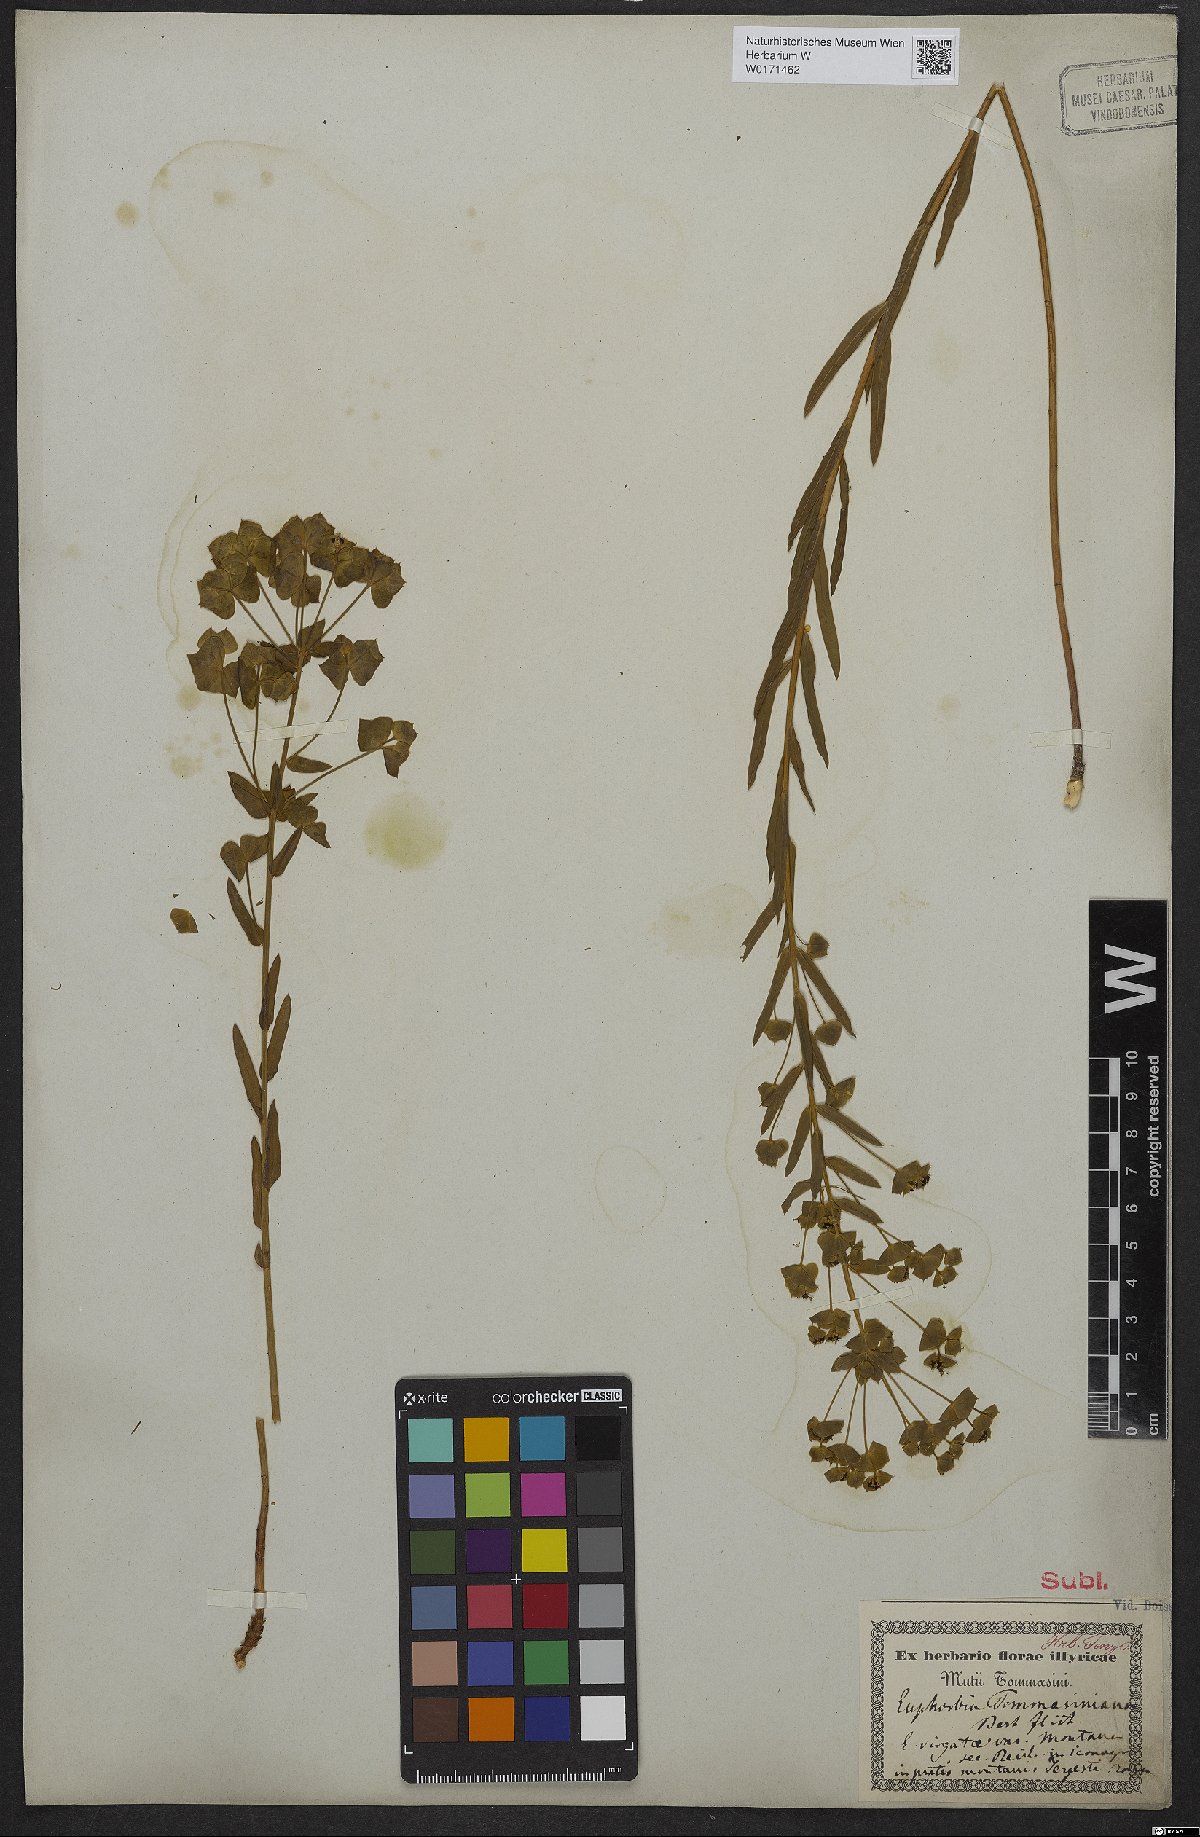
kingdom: Plantae
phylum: Tracheophyta
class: Magnoliopsida
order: Malpighiales
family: Euphorbiaceae
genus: Euphorbia
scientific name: Euphorbia tommasiniana
